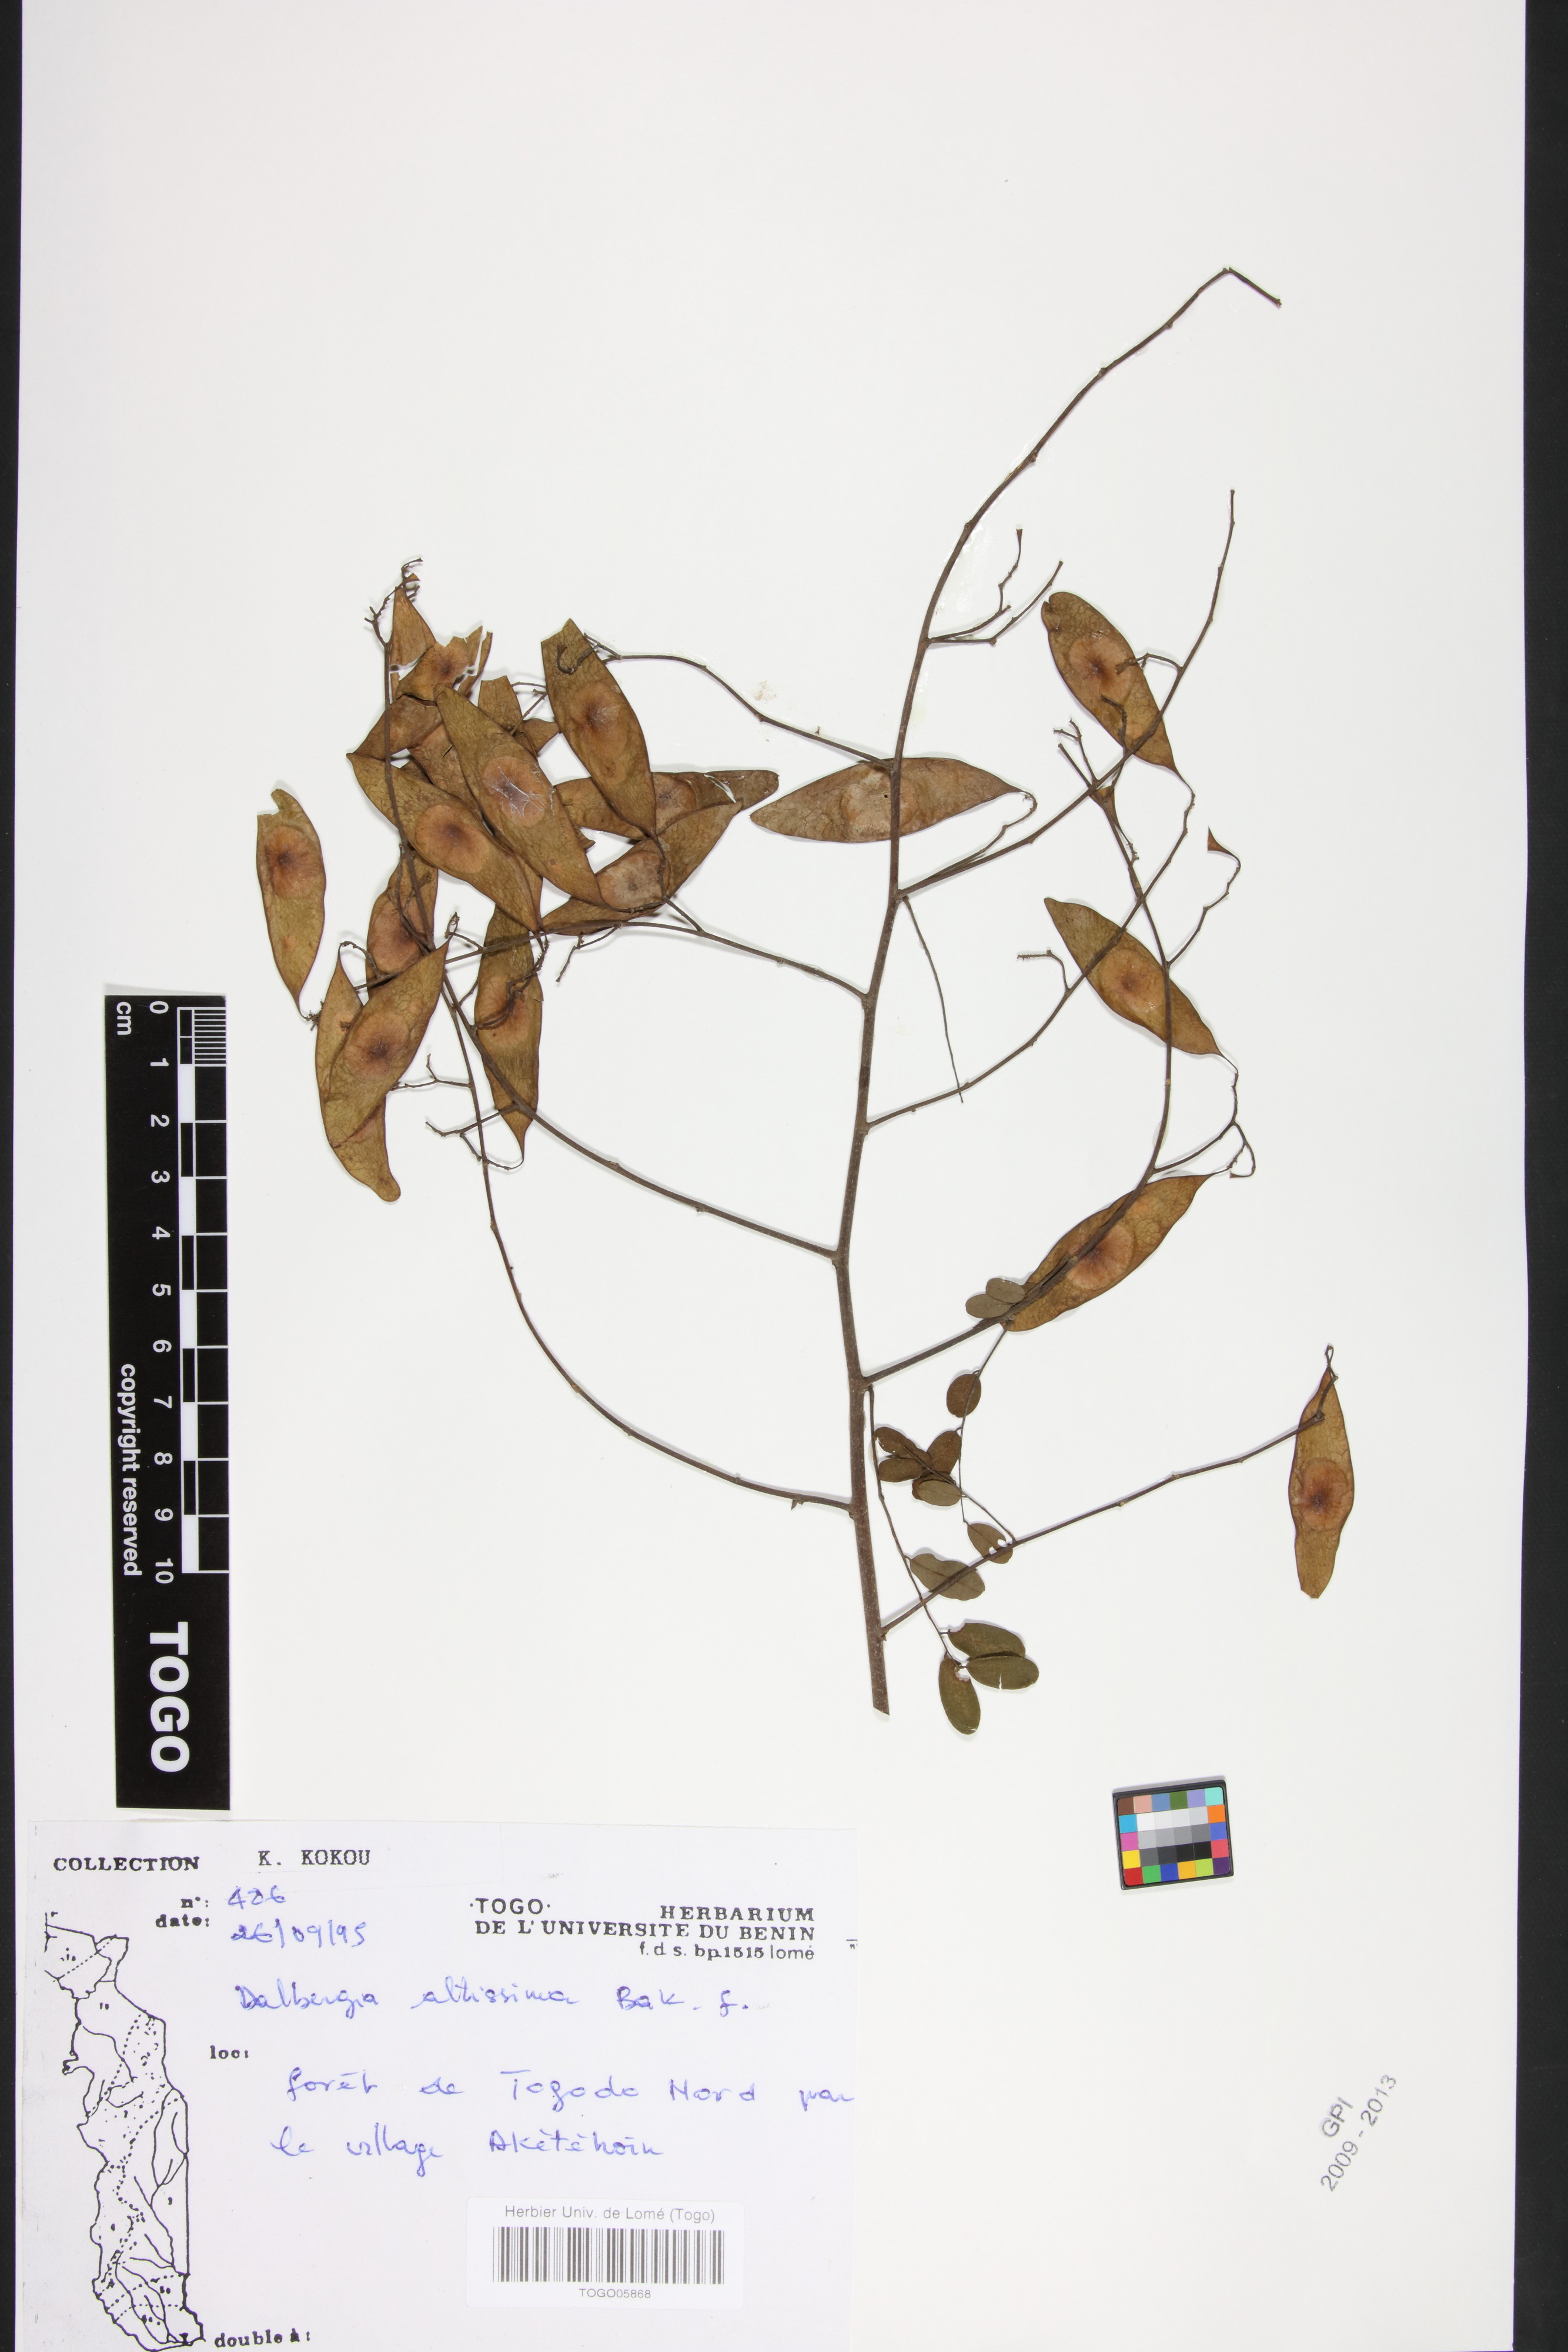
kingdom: Plantae
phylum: Tracheophyta
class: Magnoliopsida
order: Fabales
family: Fabaceae
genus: Dalbergia
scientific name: Dalbergia altissima
